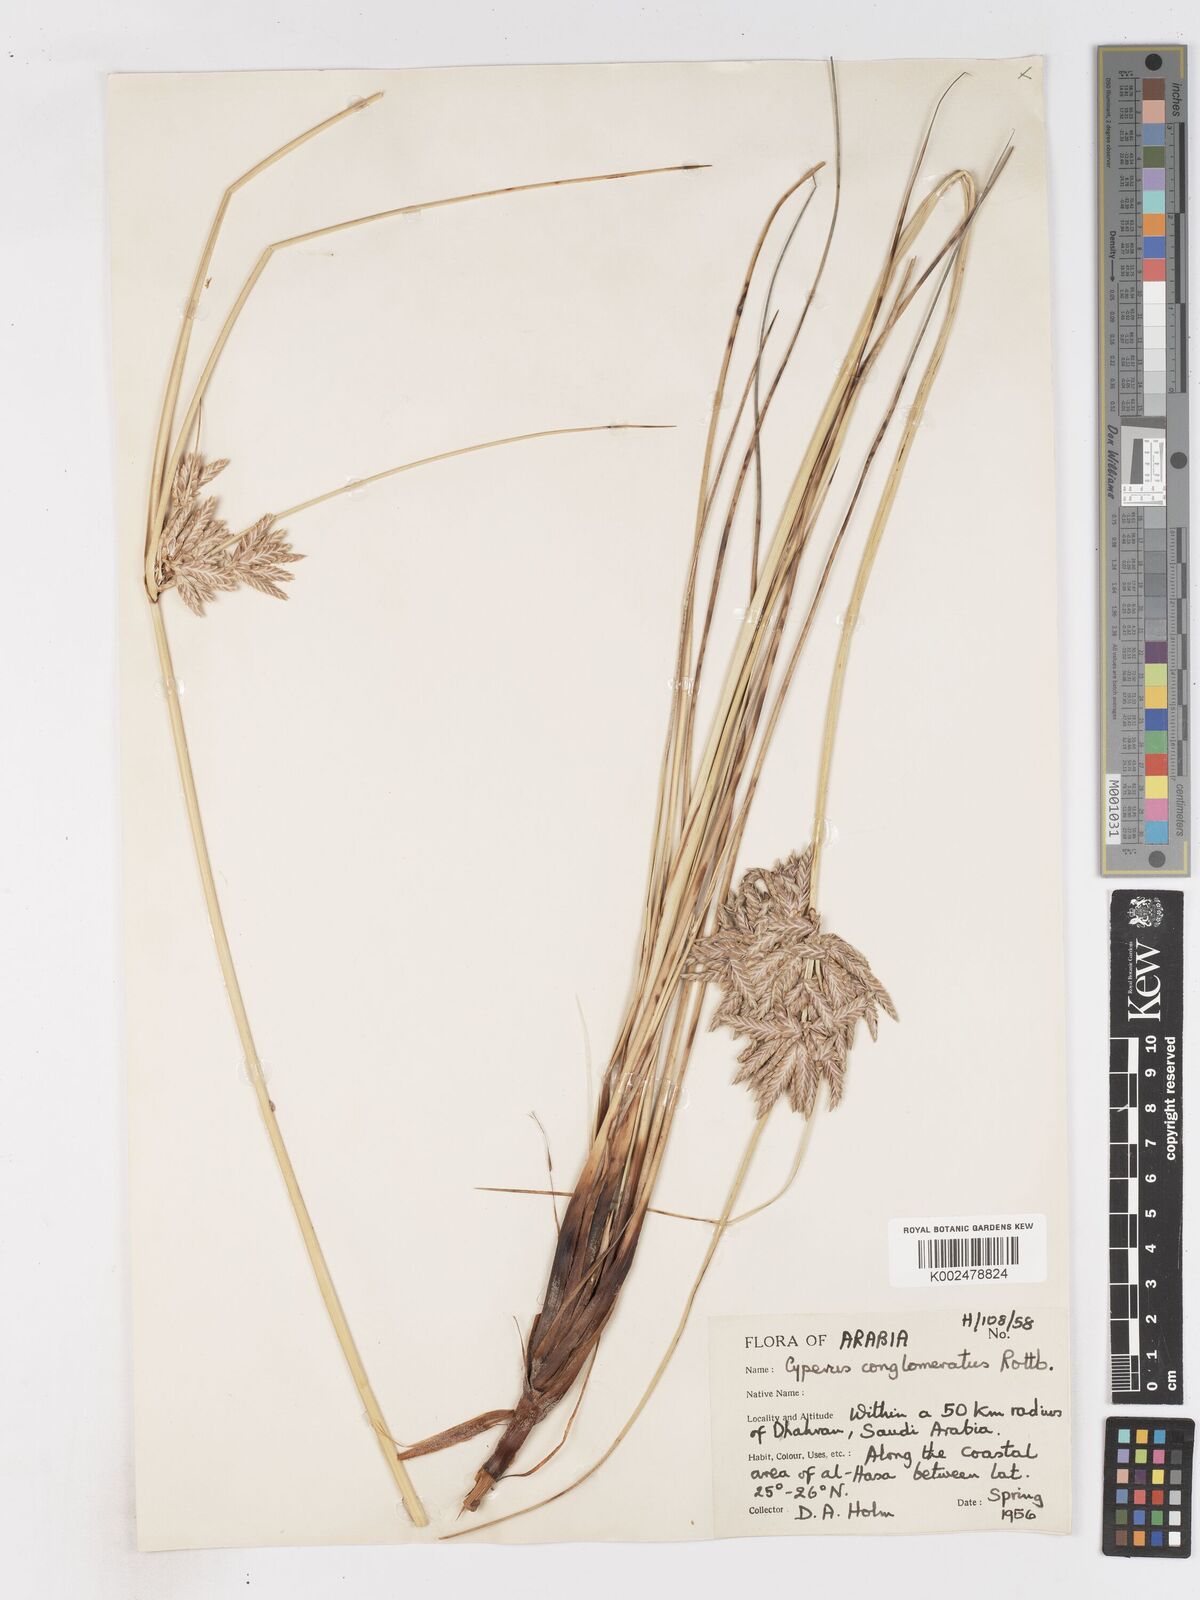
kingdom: Plantae
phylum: Tracheophyta
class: Liliopsida
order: Poales
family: Cyperaceae
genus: Cyperus
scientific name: Cyperus aucheri
